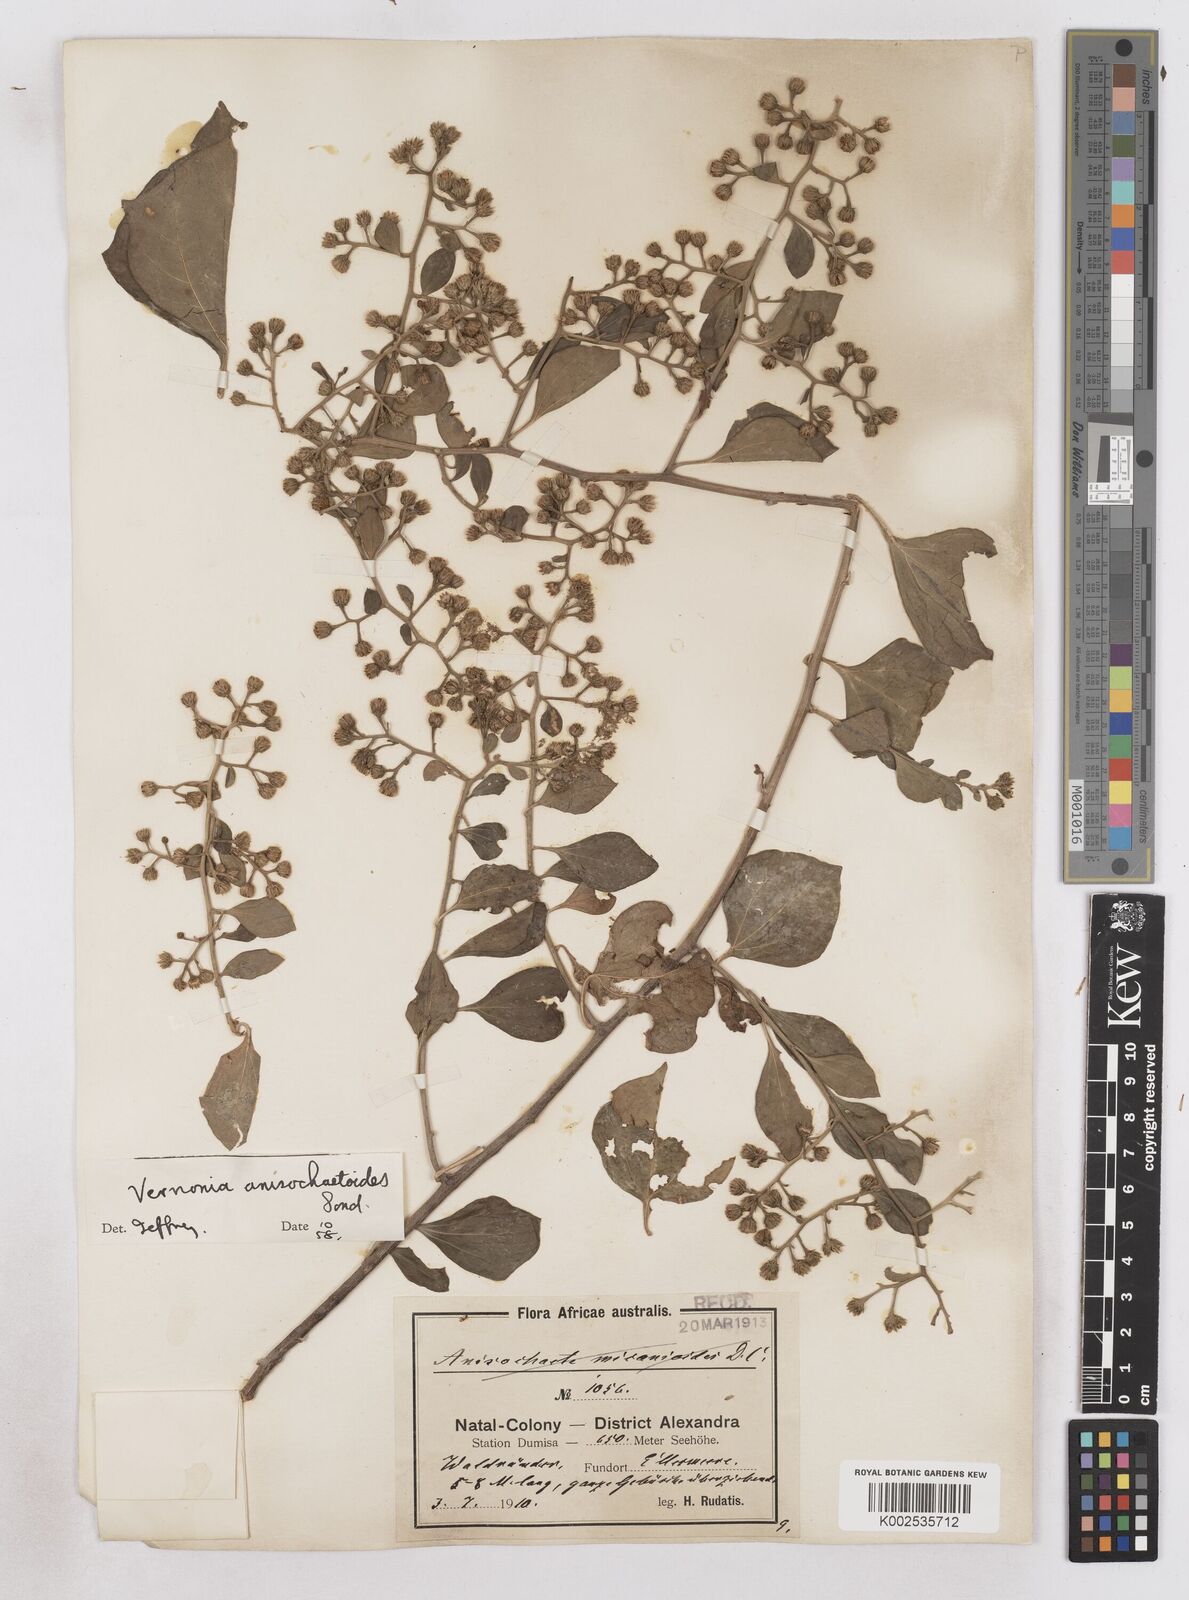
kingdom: Plantae
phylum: Tracheophyta
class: Magnoliopsida
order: Asterales
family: Asteraceae
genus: Distephanus
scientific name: Distephanus anisochaetoides
